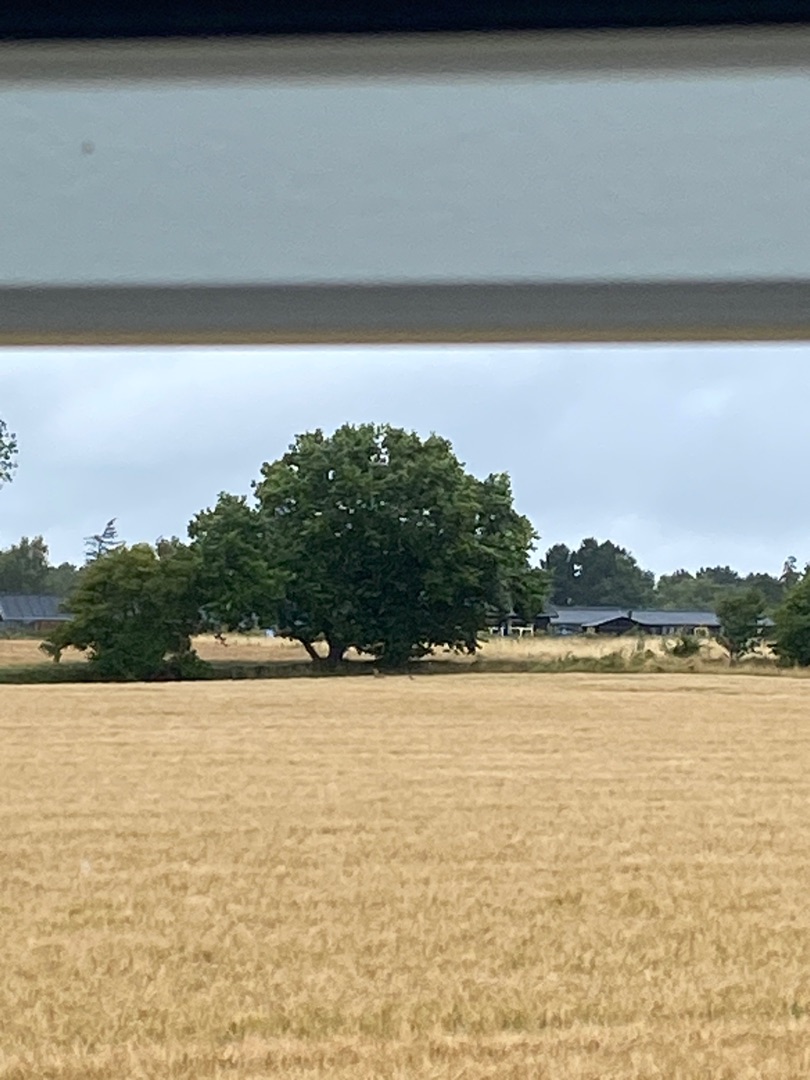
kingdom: Animalia
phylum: Chordata
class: Mammalia
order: Artiodactyla
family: Cervidae
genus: Capreolus
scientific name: Capreolus capreolus
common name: Rådyr
